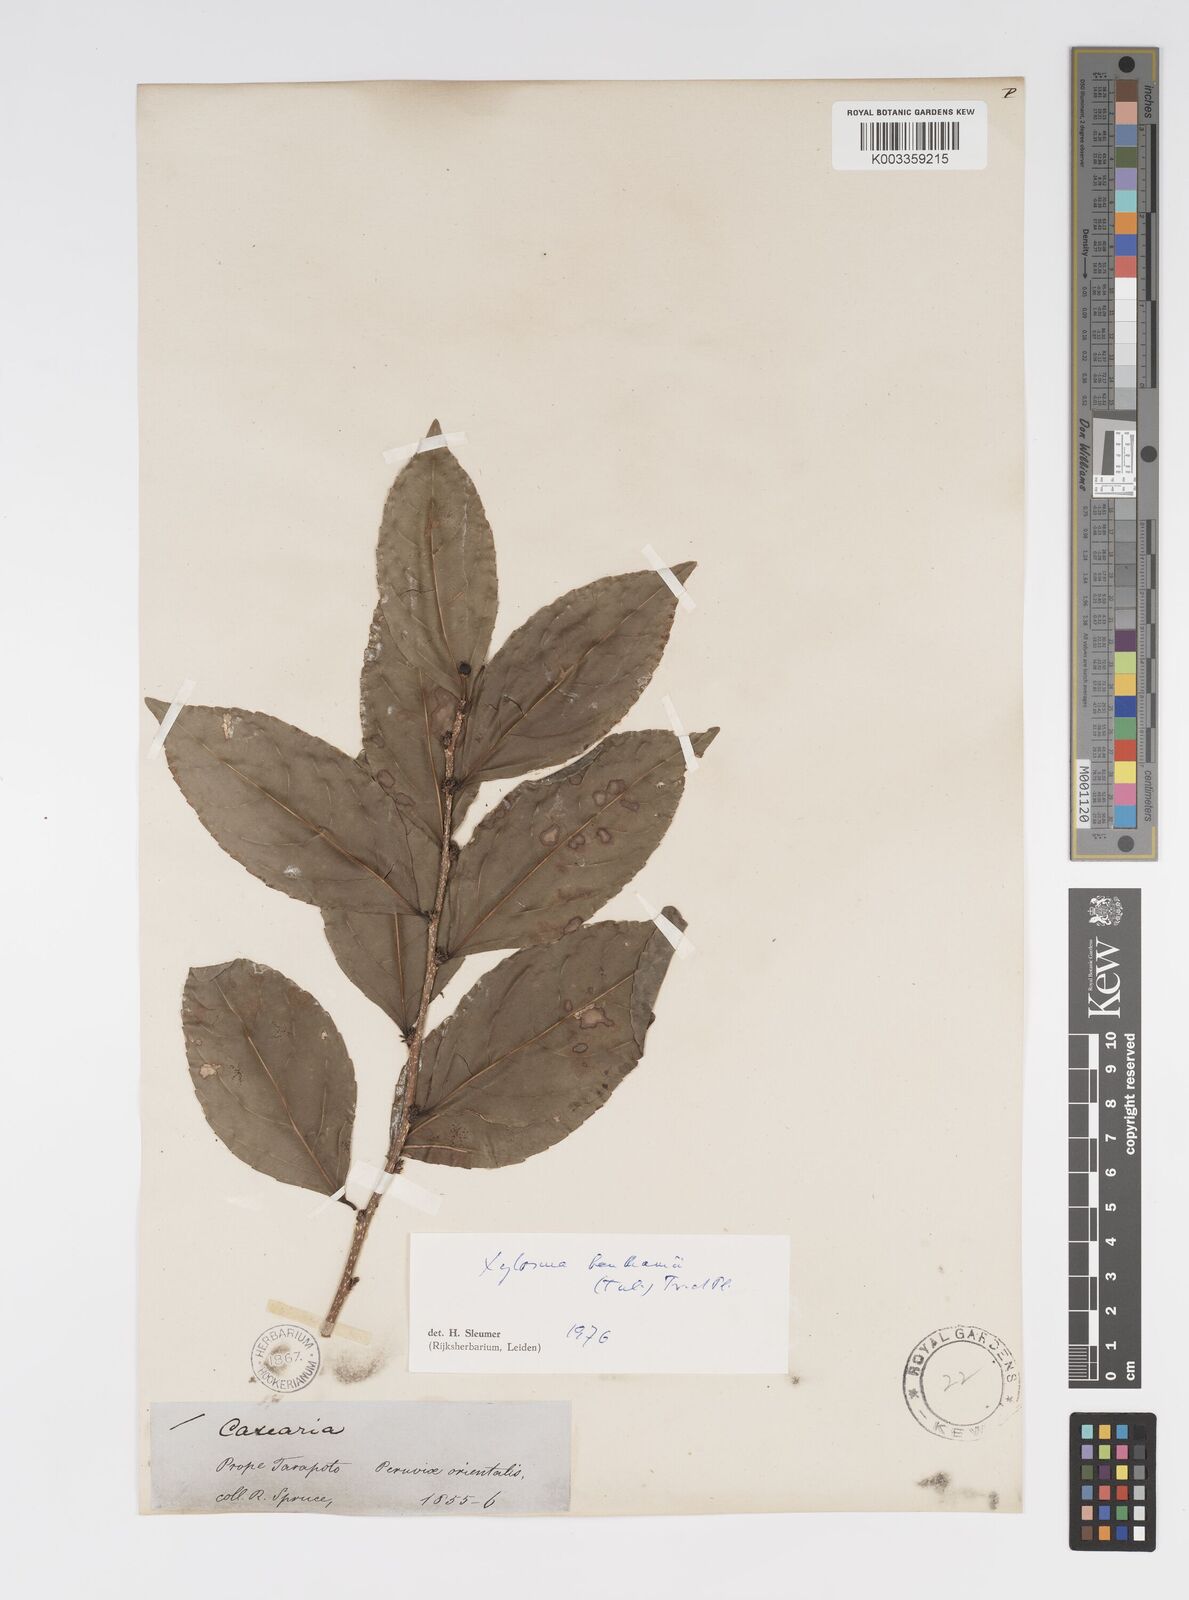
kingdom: Plantae
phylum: Tracheophyta
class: Magnoliopsida
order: Malpighiales
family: Salicaceae
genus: Xylosma
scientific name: Xylosma benthamii
